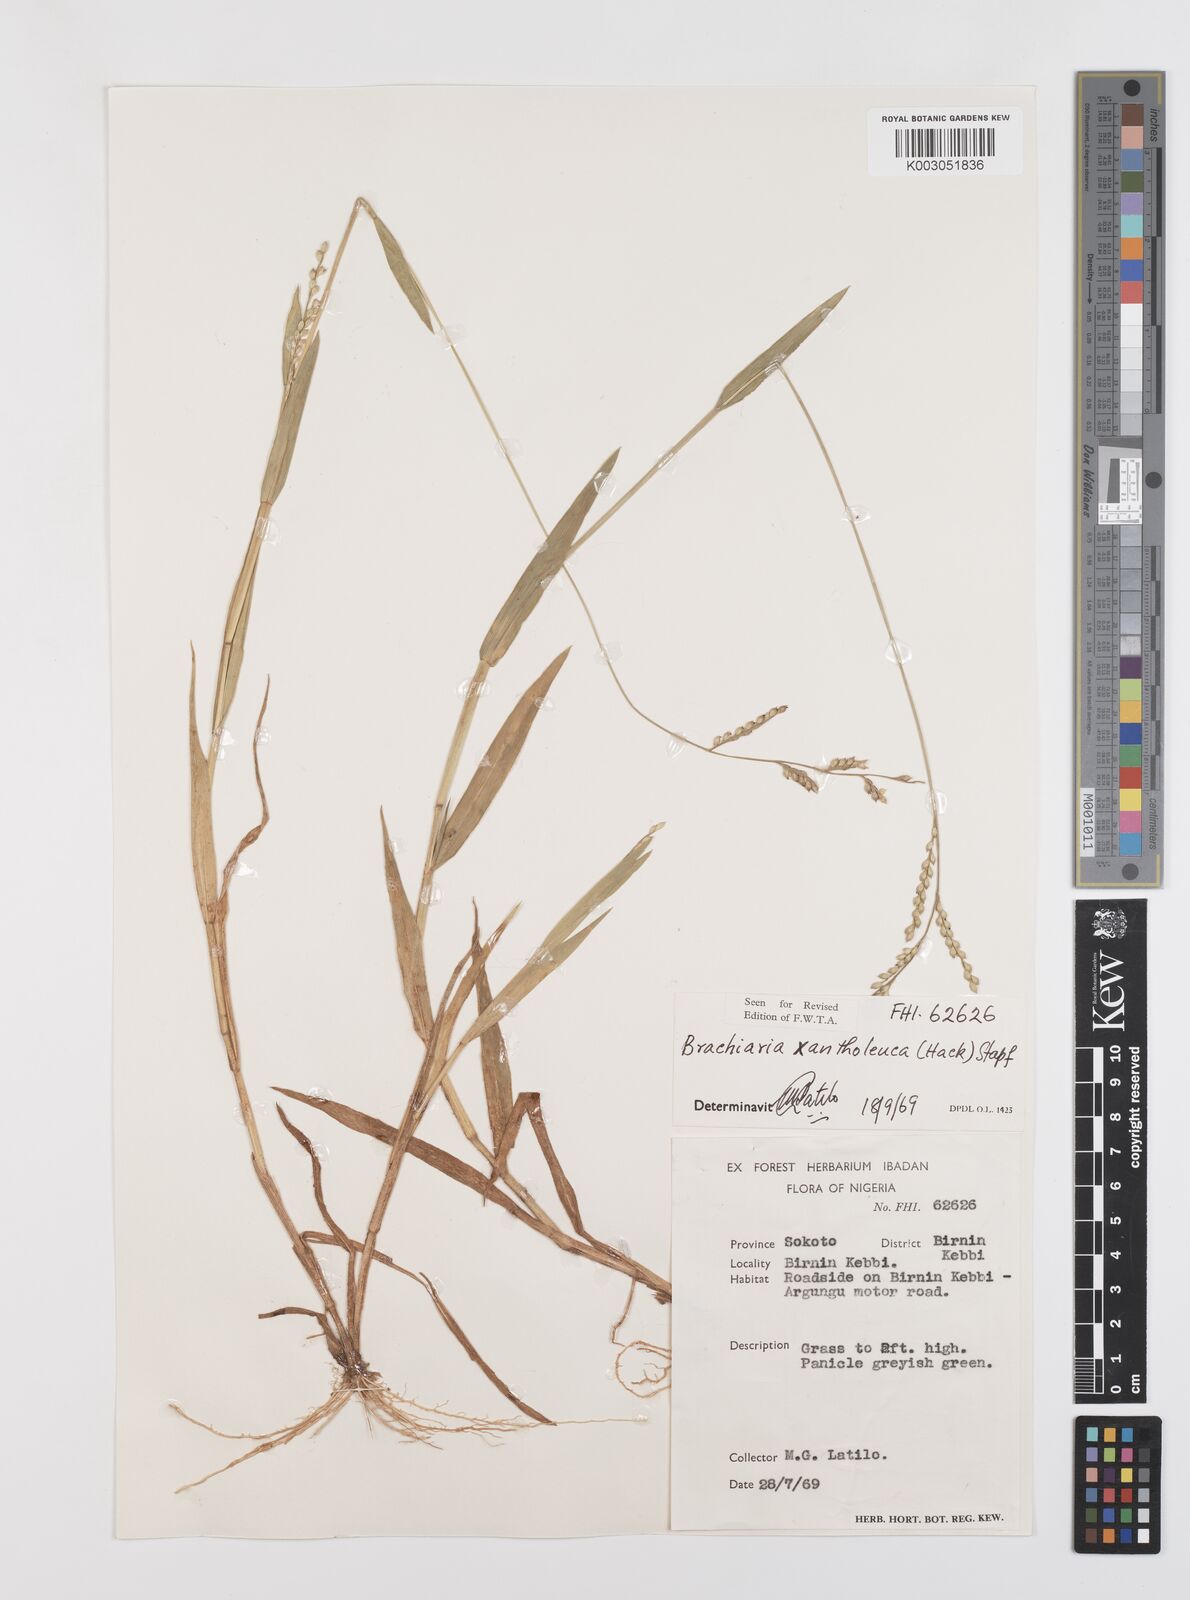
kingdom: Plantae
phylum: Tracheophyta
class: Liliopsida
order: Poales
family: Poaceae
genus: Urochloa
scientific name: Urochloa xantholeuca
